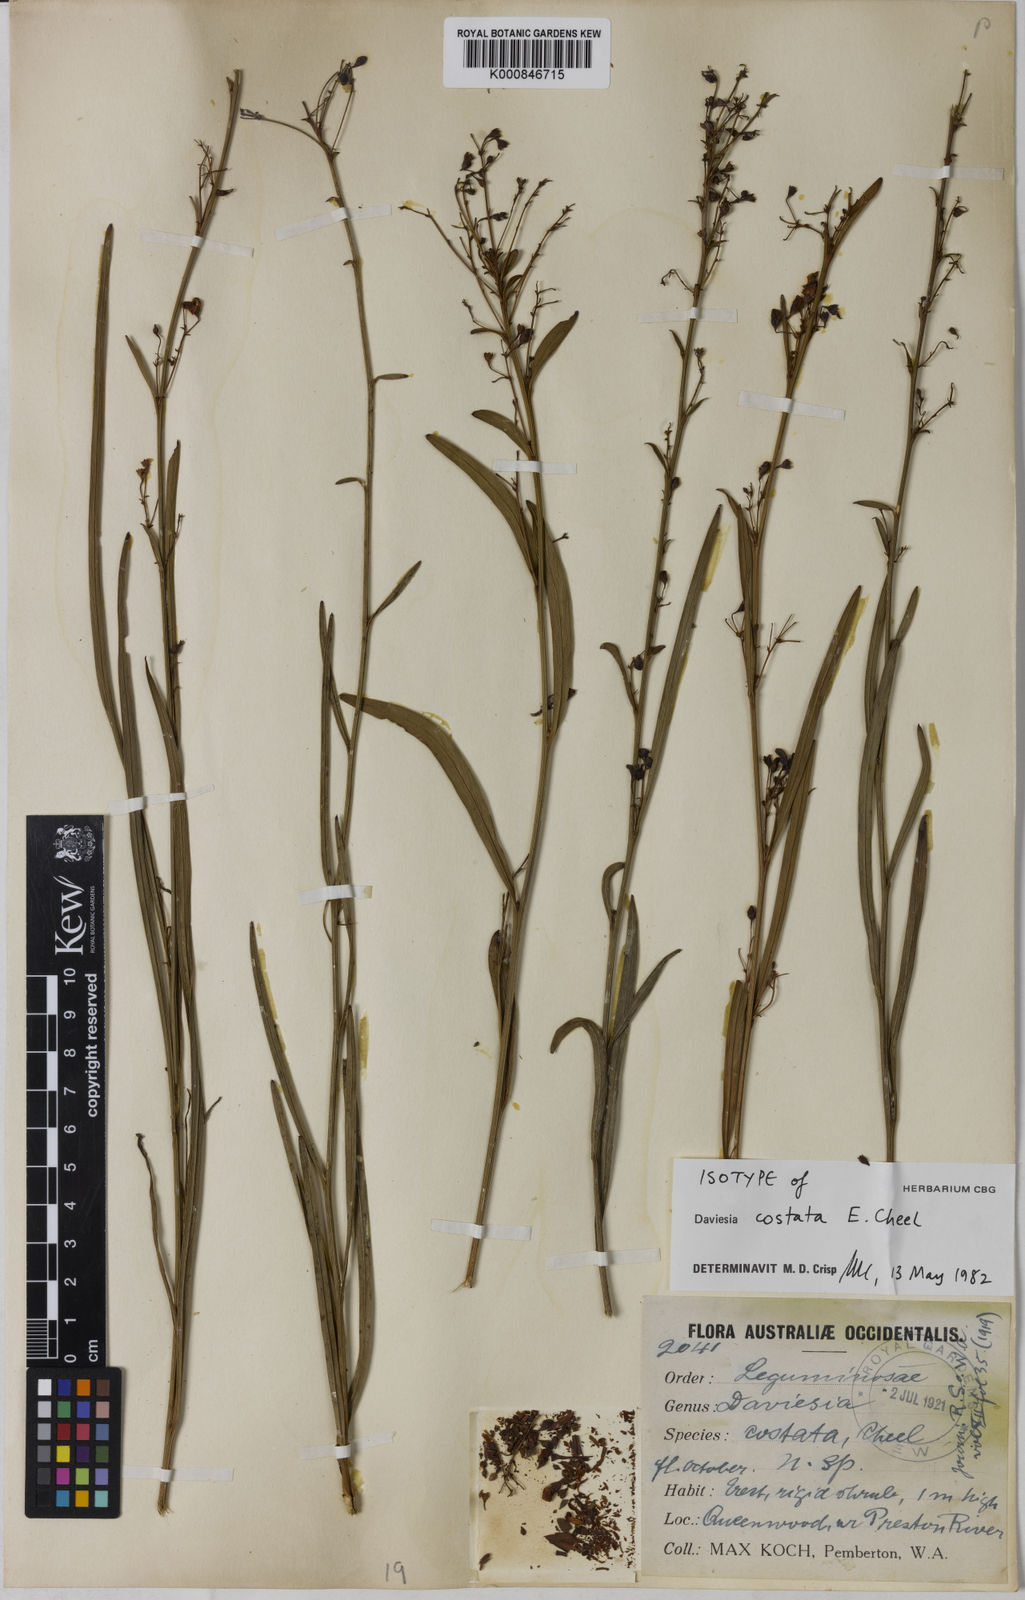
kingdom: Plantae
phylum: Tracheophyta
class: Magnoliopsida
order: Fabales
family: Fabaceae
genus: Daviesia
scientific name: Daviesia costata
